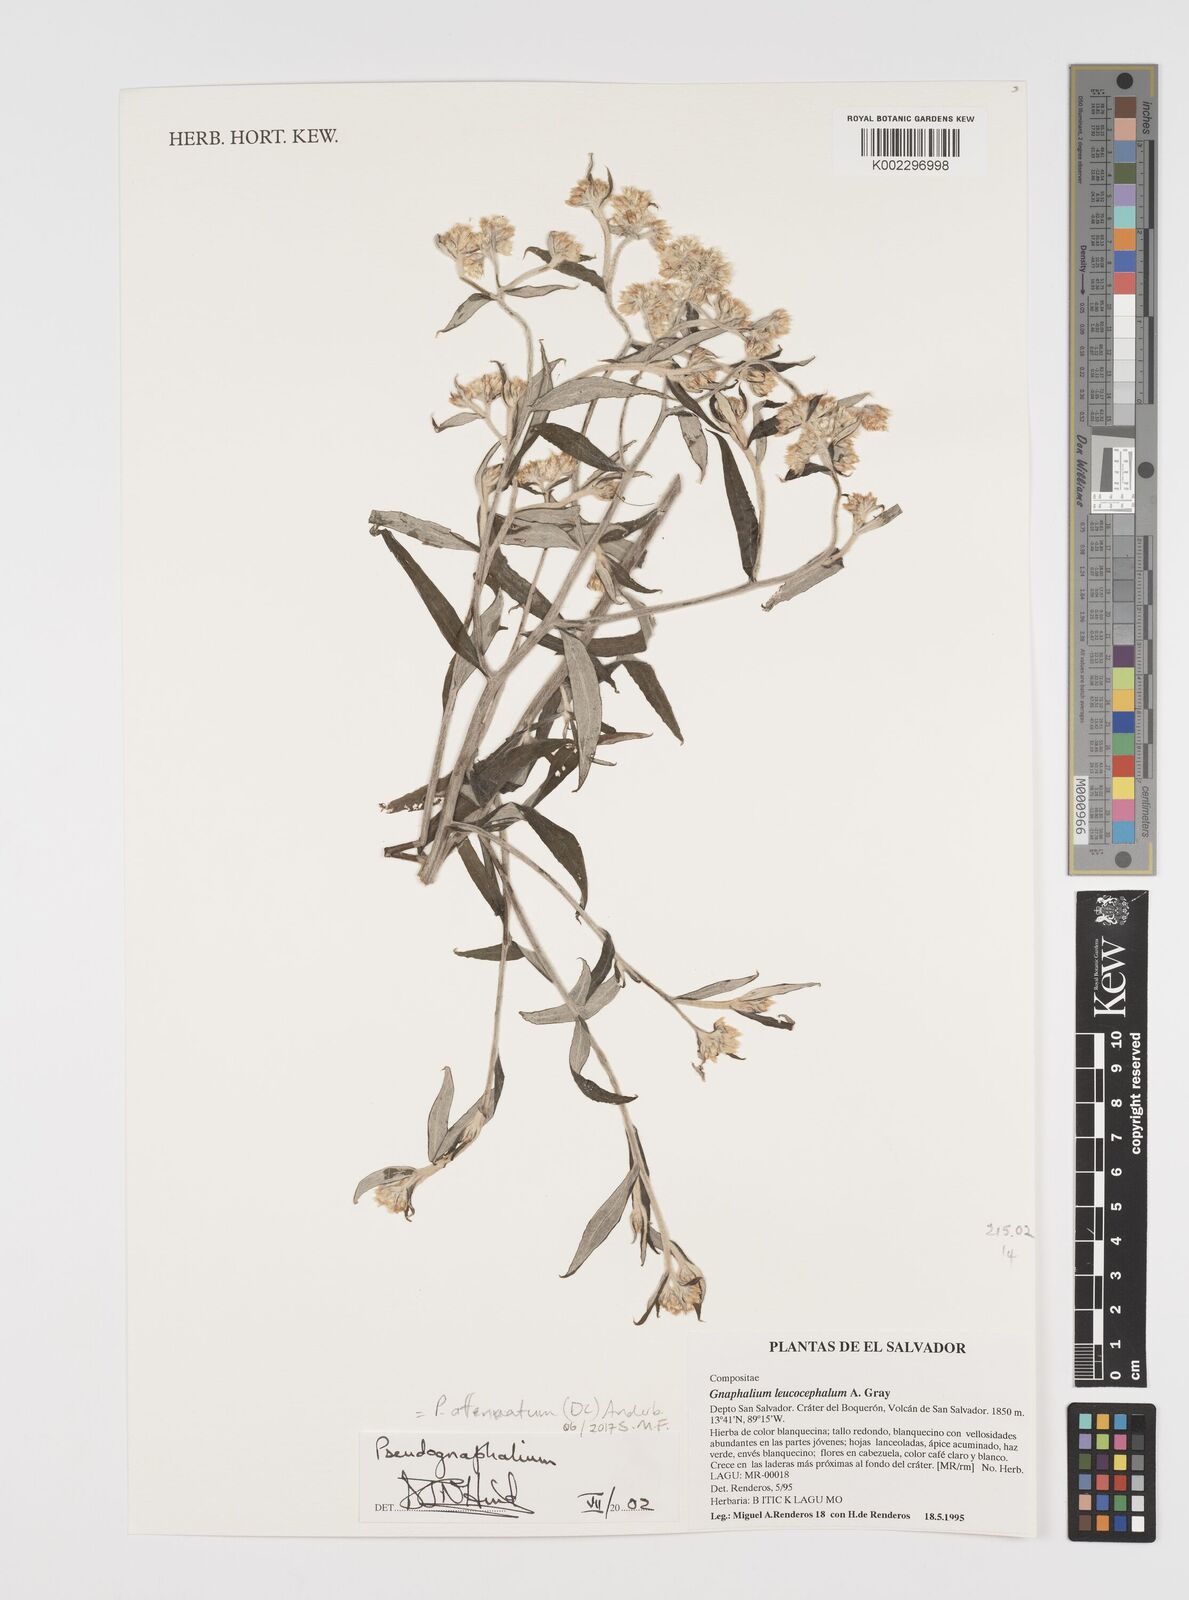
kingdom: Plantae
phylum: Tracheophyta
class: Magnoliopsida
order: Asterales
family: Asteraceae
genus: Pseudognaphalium
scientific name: Pseudognaphalium attenuatum
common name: Tapered cudweed
